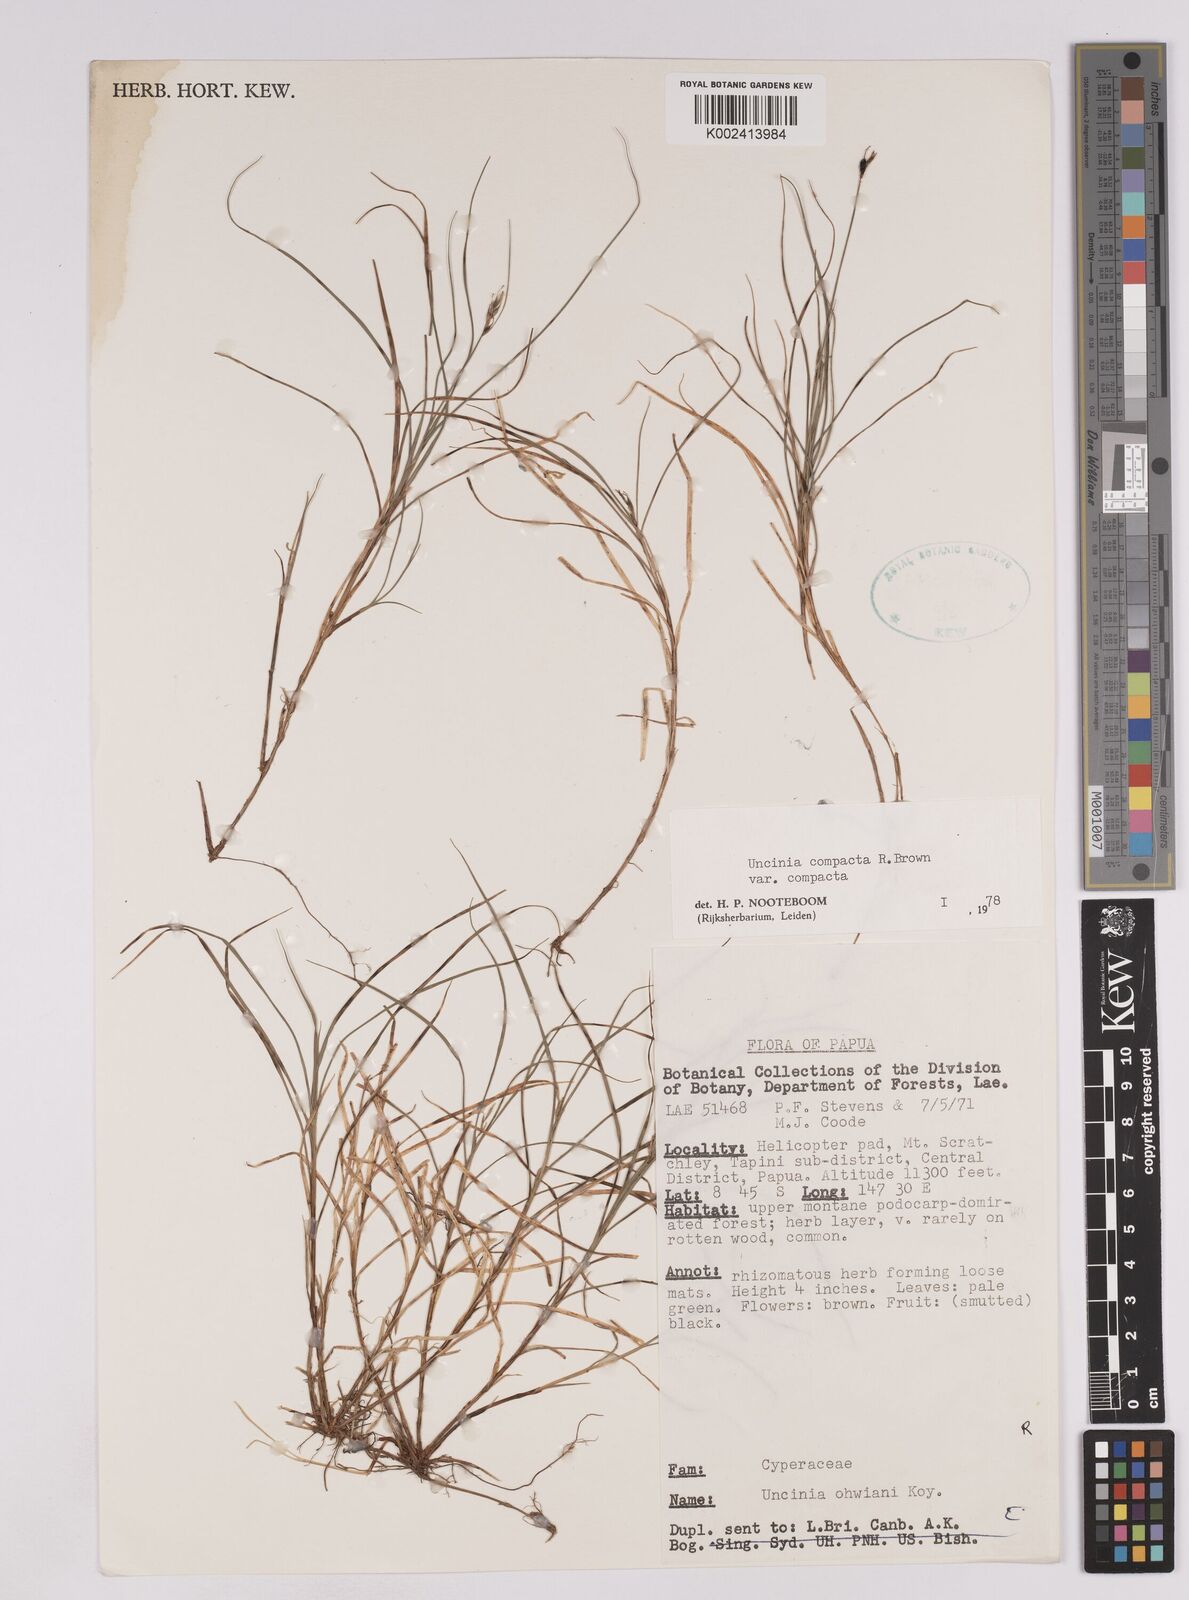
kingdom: Plantae
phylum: Tracheophyta
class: Liliopsida
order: Poales
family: Cyperaceae
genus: Carex
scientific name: Carex austrocompacta
